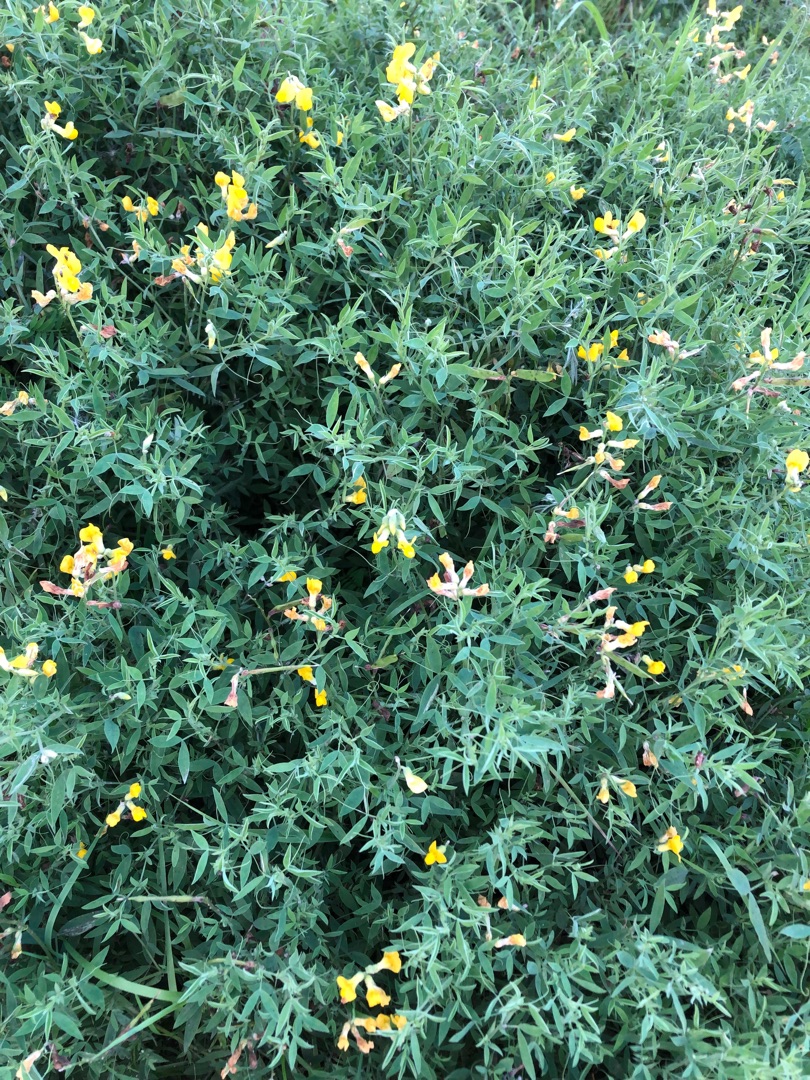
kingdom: Plantae
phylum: Tracheophyta
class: Magnoliopsida
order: Fabales
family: Fabaceae
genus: Lathyrus
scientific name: Lathyrus pratensis
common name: Gul fladbælg
